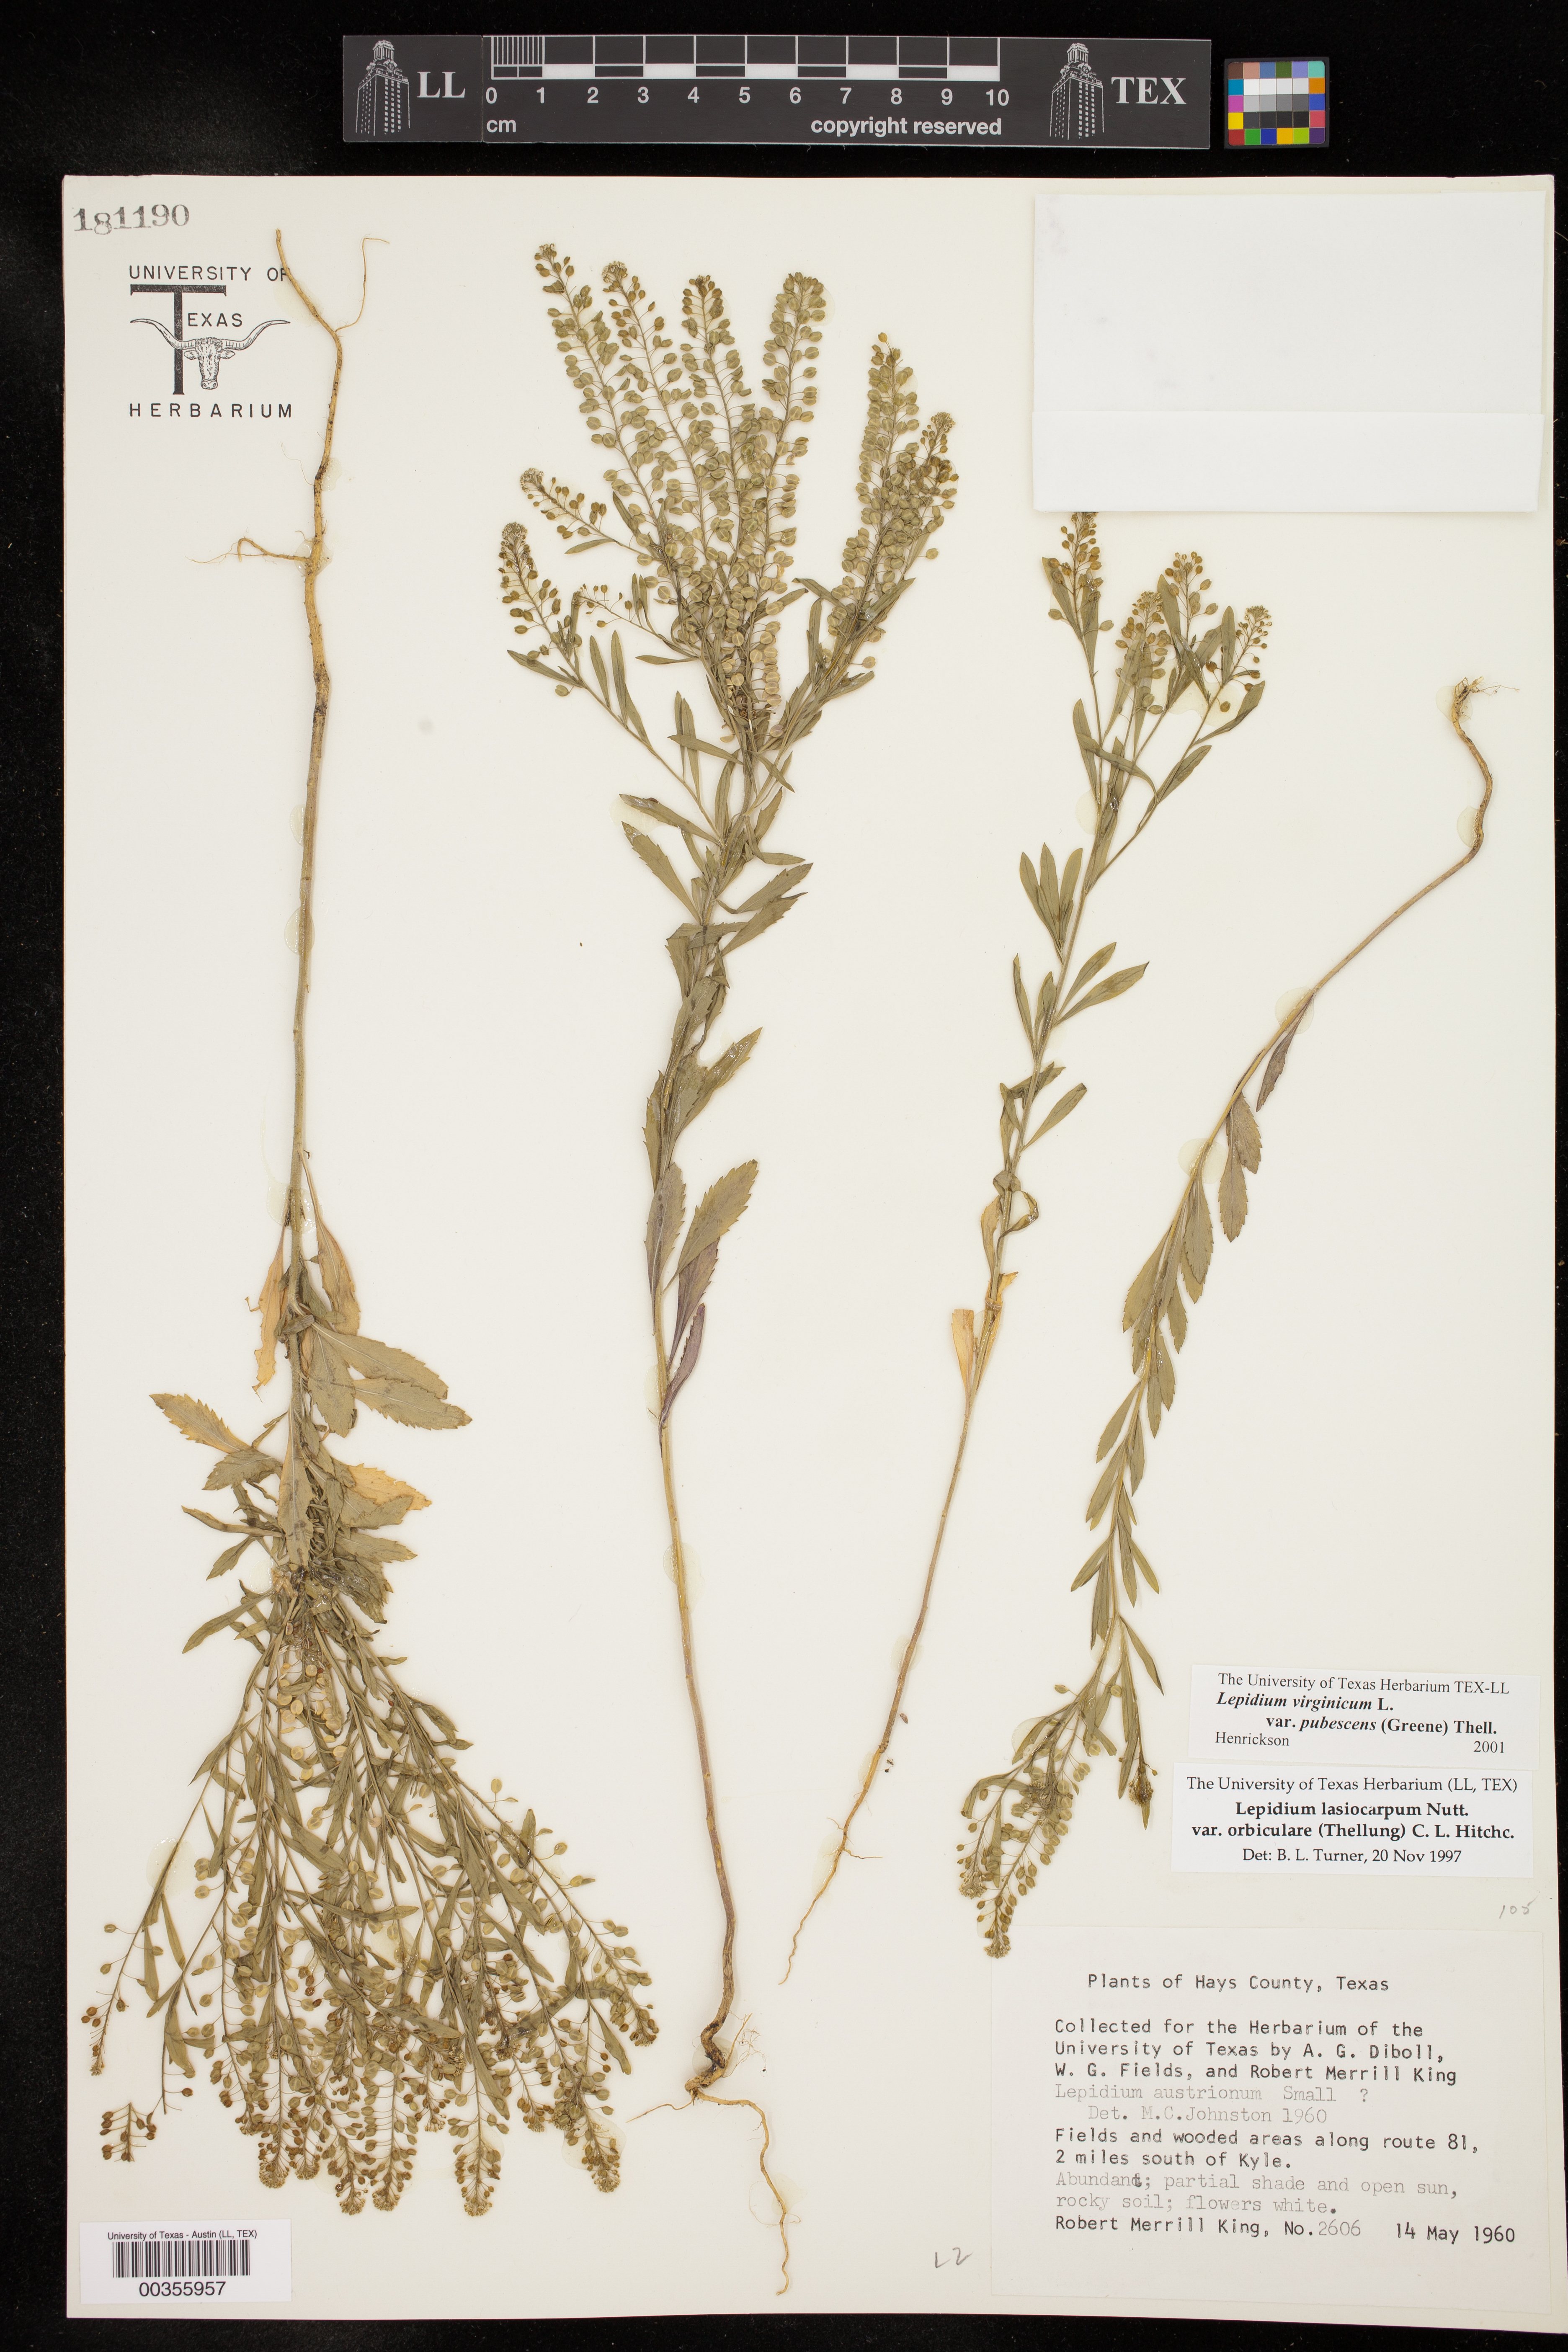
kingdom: Plantae
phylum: Tracheophyta
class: Magnoliopsida
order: Brassicales
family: Brassicaceae
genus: Lepidium
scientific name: Lepidium virginicum
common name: Least pepperwort
